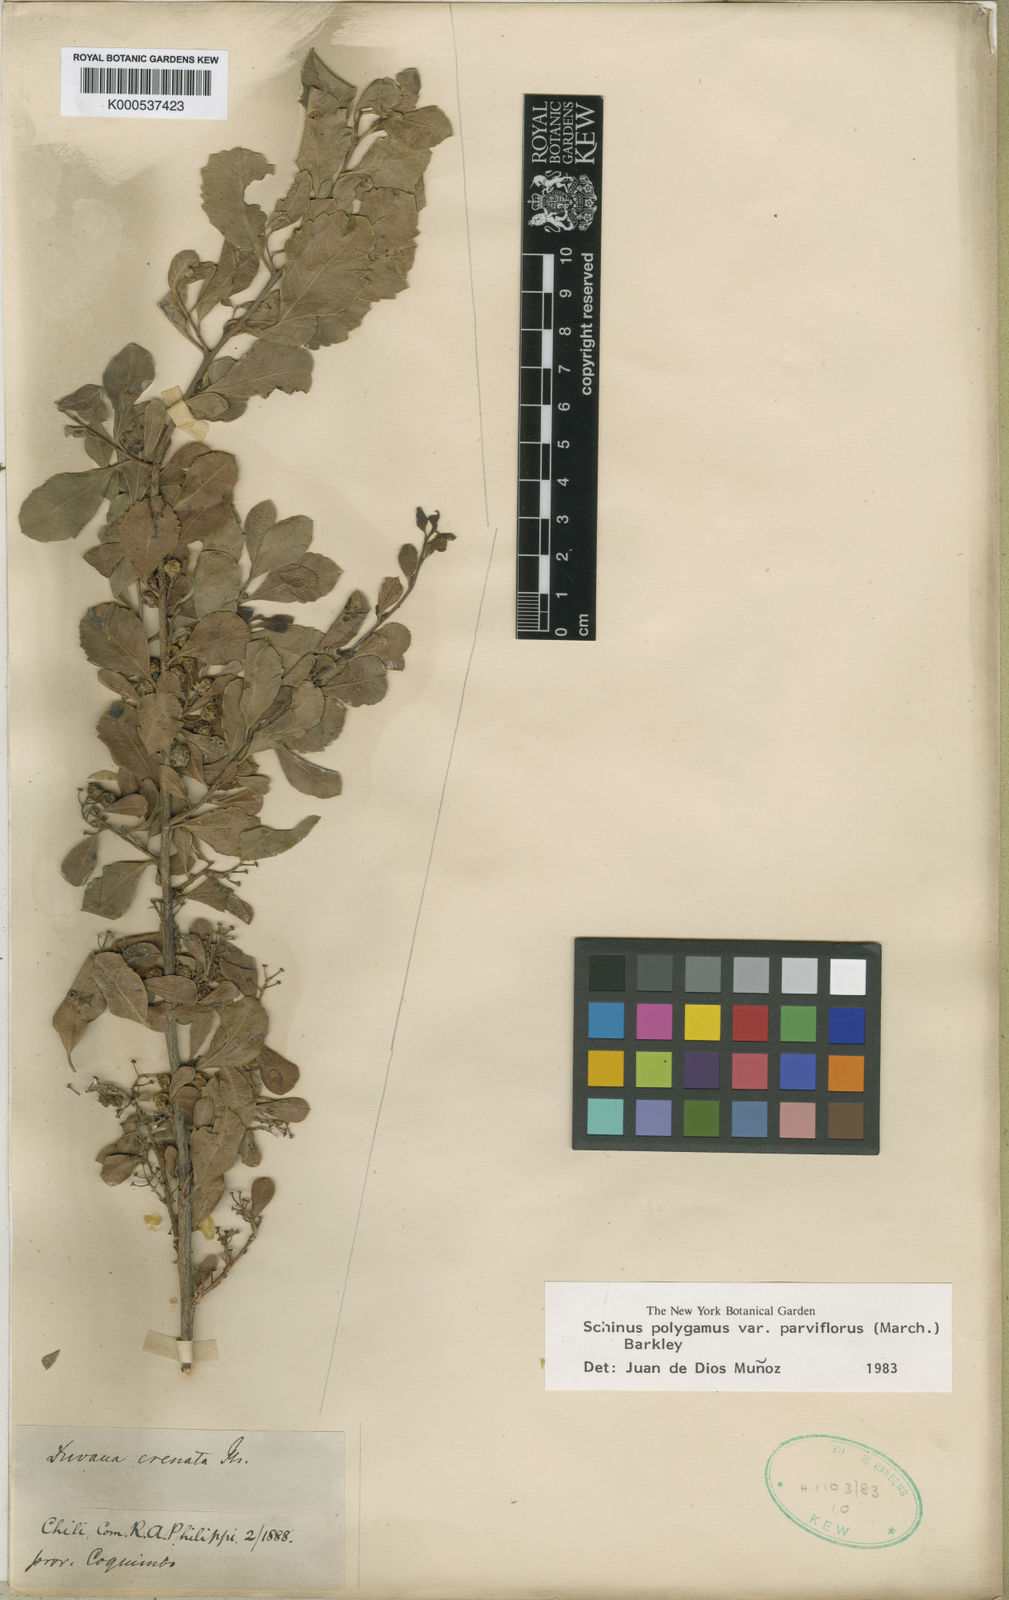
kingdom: Plantae
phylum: Tracheophyta
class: Magnoliopsida
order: Sapindales
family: Anacardiaceae
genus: Schinus
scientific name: Schinus polygama
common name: Hardee peppertree
